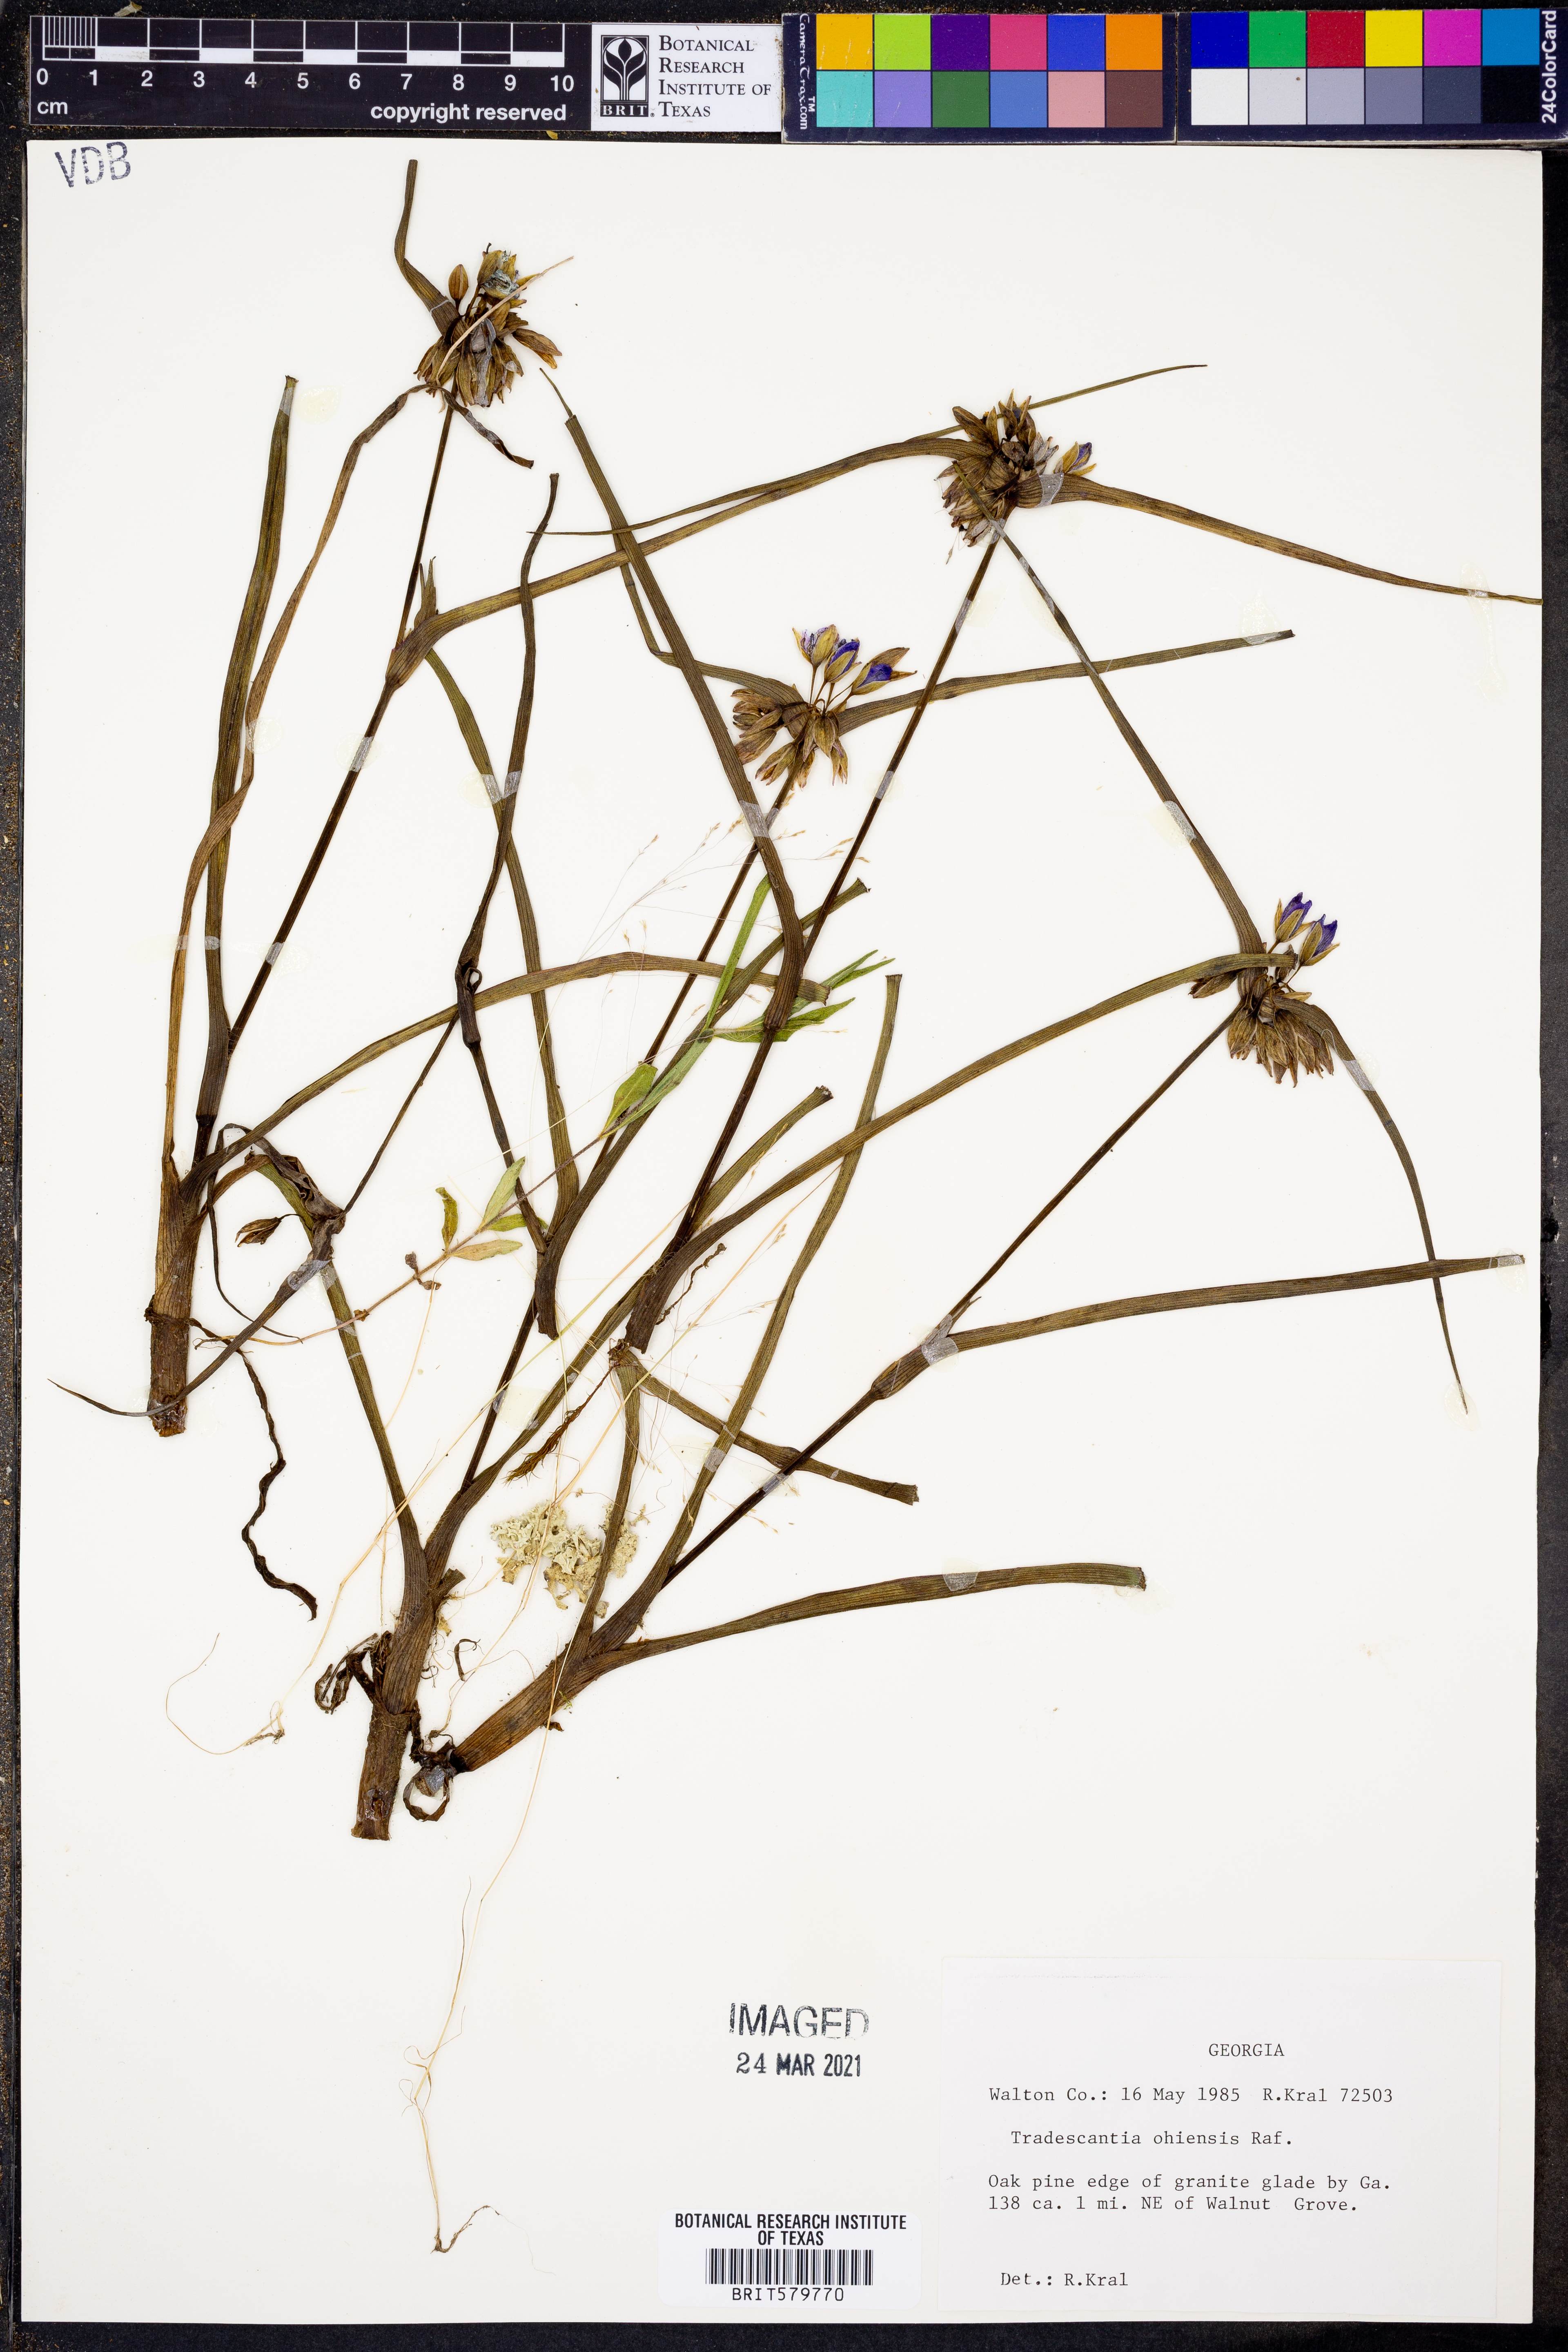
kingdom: Plantae
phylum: Tracheophyta
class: Liliopsida
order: Commelinales
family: Commelinaceae
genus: Tradescantia
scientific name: Tradescantia ohiensis
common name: Ohio spiderwort
